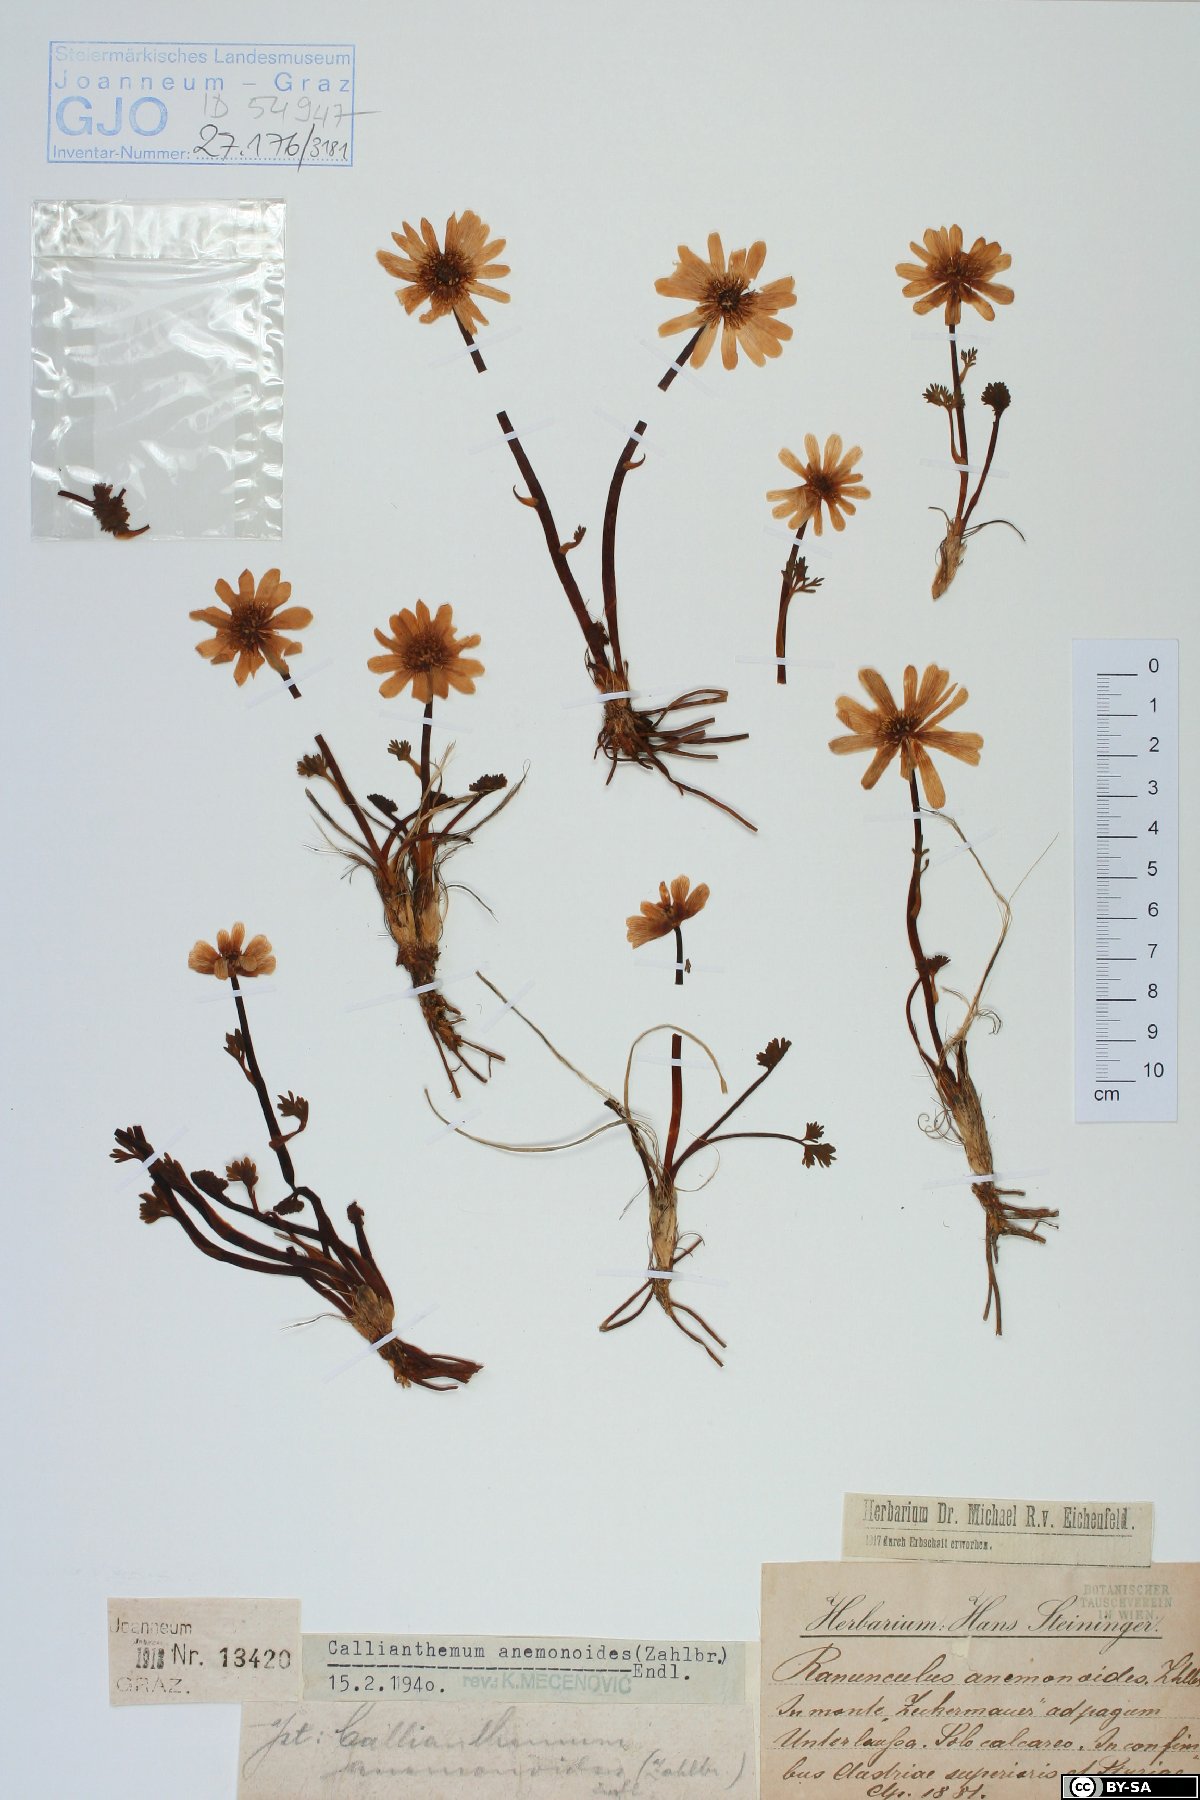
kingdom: Plantae
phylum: Tracheophyta
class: Magnoliopsida
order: Ranunculales
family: Ranunculaceae
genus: Callianthemum
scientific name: Callianthemum anemonoides
